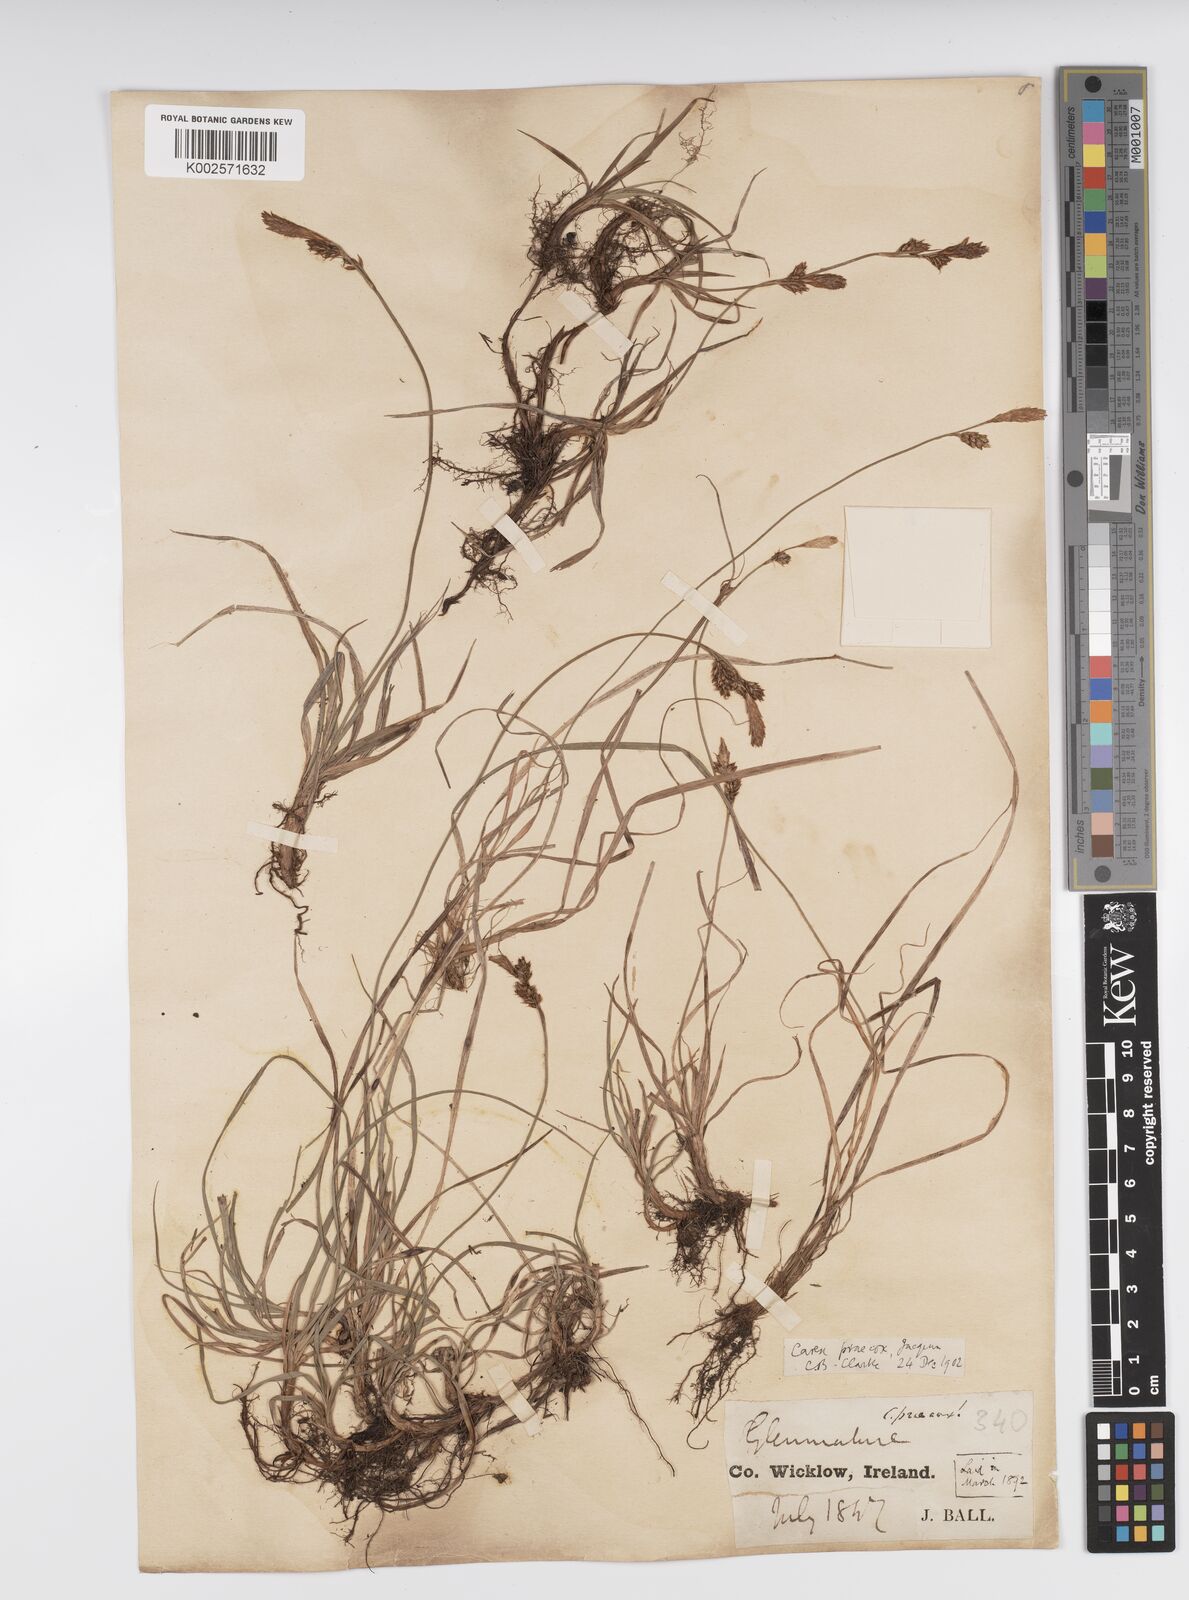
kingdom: Plantae
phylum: Tracheophyta
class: Liliopsida
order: Poales
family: Cyperaceae
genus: Carex
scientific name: Carex caryophyllea
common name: Spring sedge
